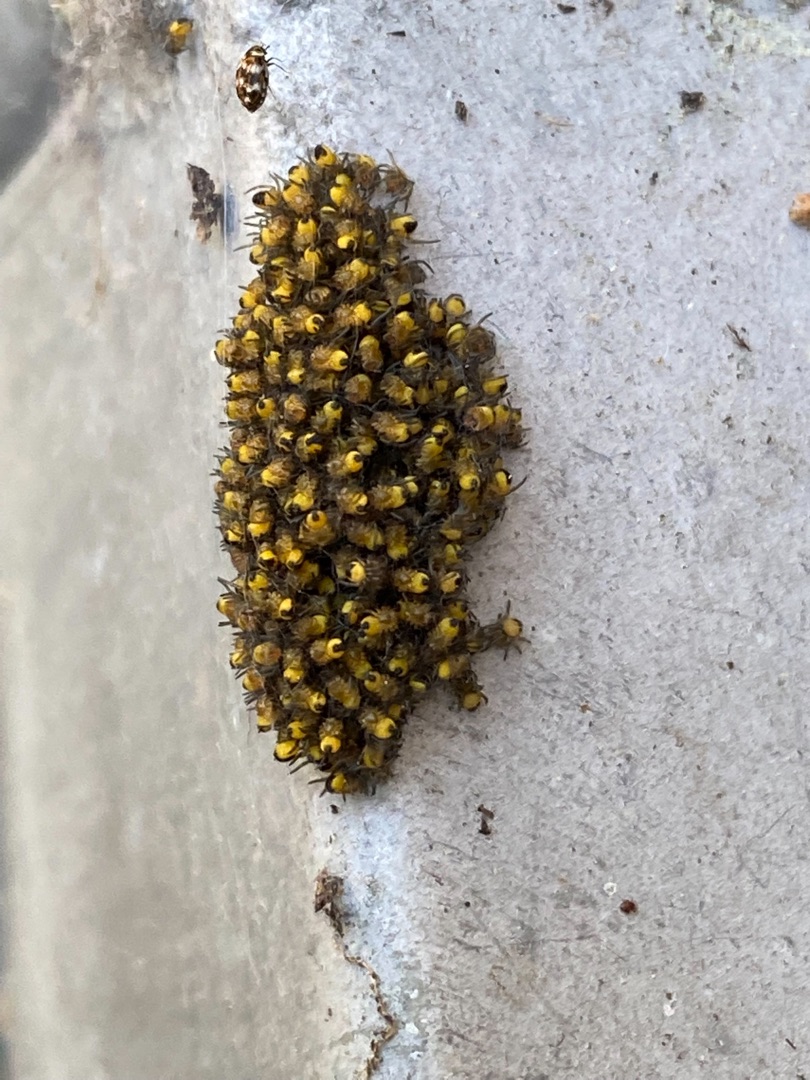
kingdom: Animalia
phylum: Arthropoda
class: Arachnida
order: Araneae
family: Araneidae
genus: Araneus
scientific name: Araneus diadematus
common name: Korsedderkop
